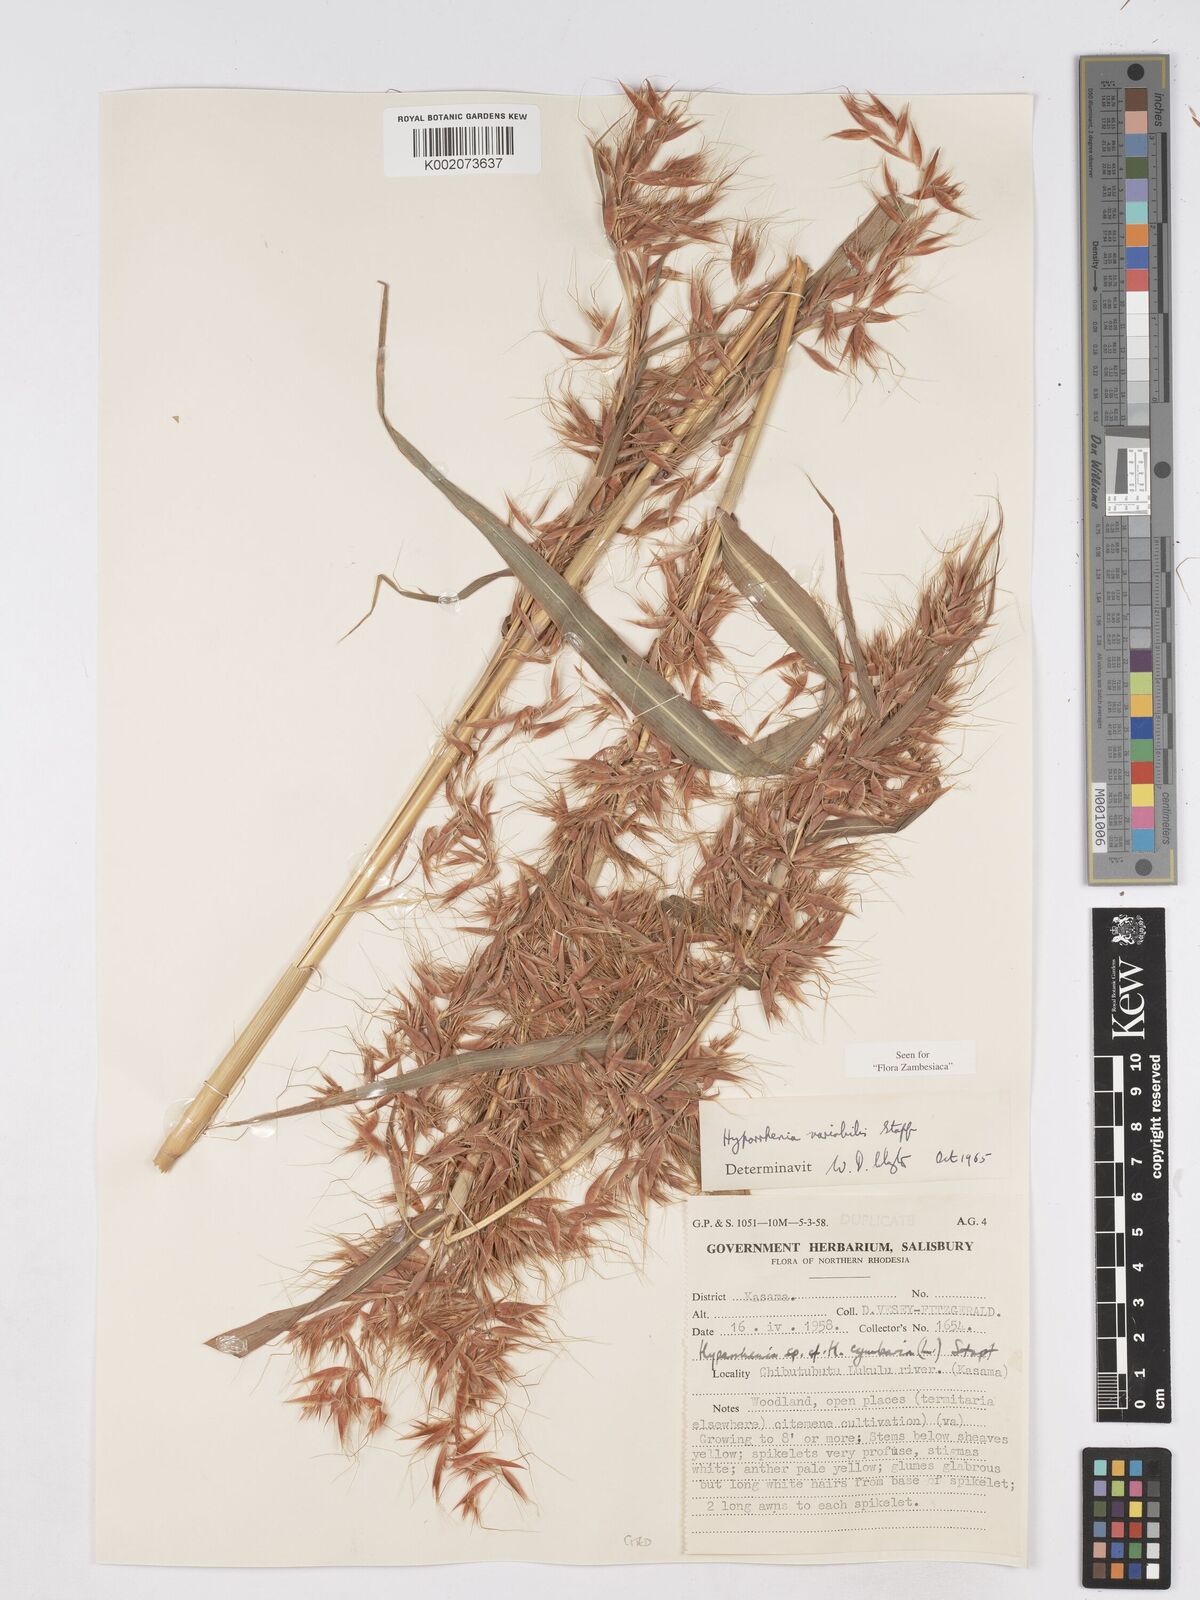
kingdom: Plantae
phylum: Tracheophyta
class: Liliopsida
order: Poales
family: Poaceae
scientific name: Poaceae
